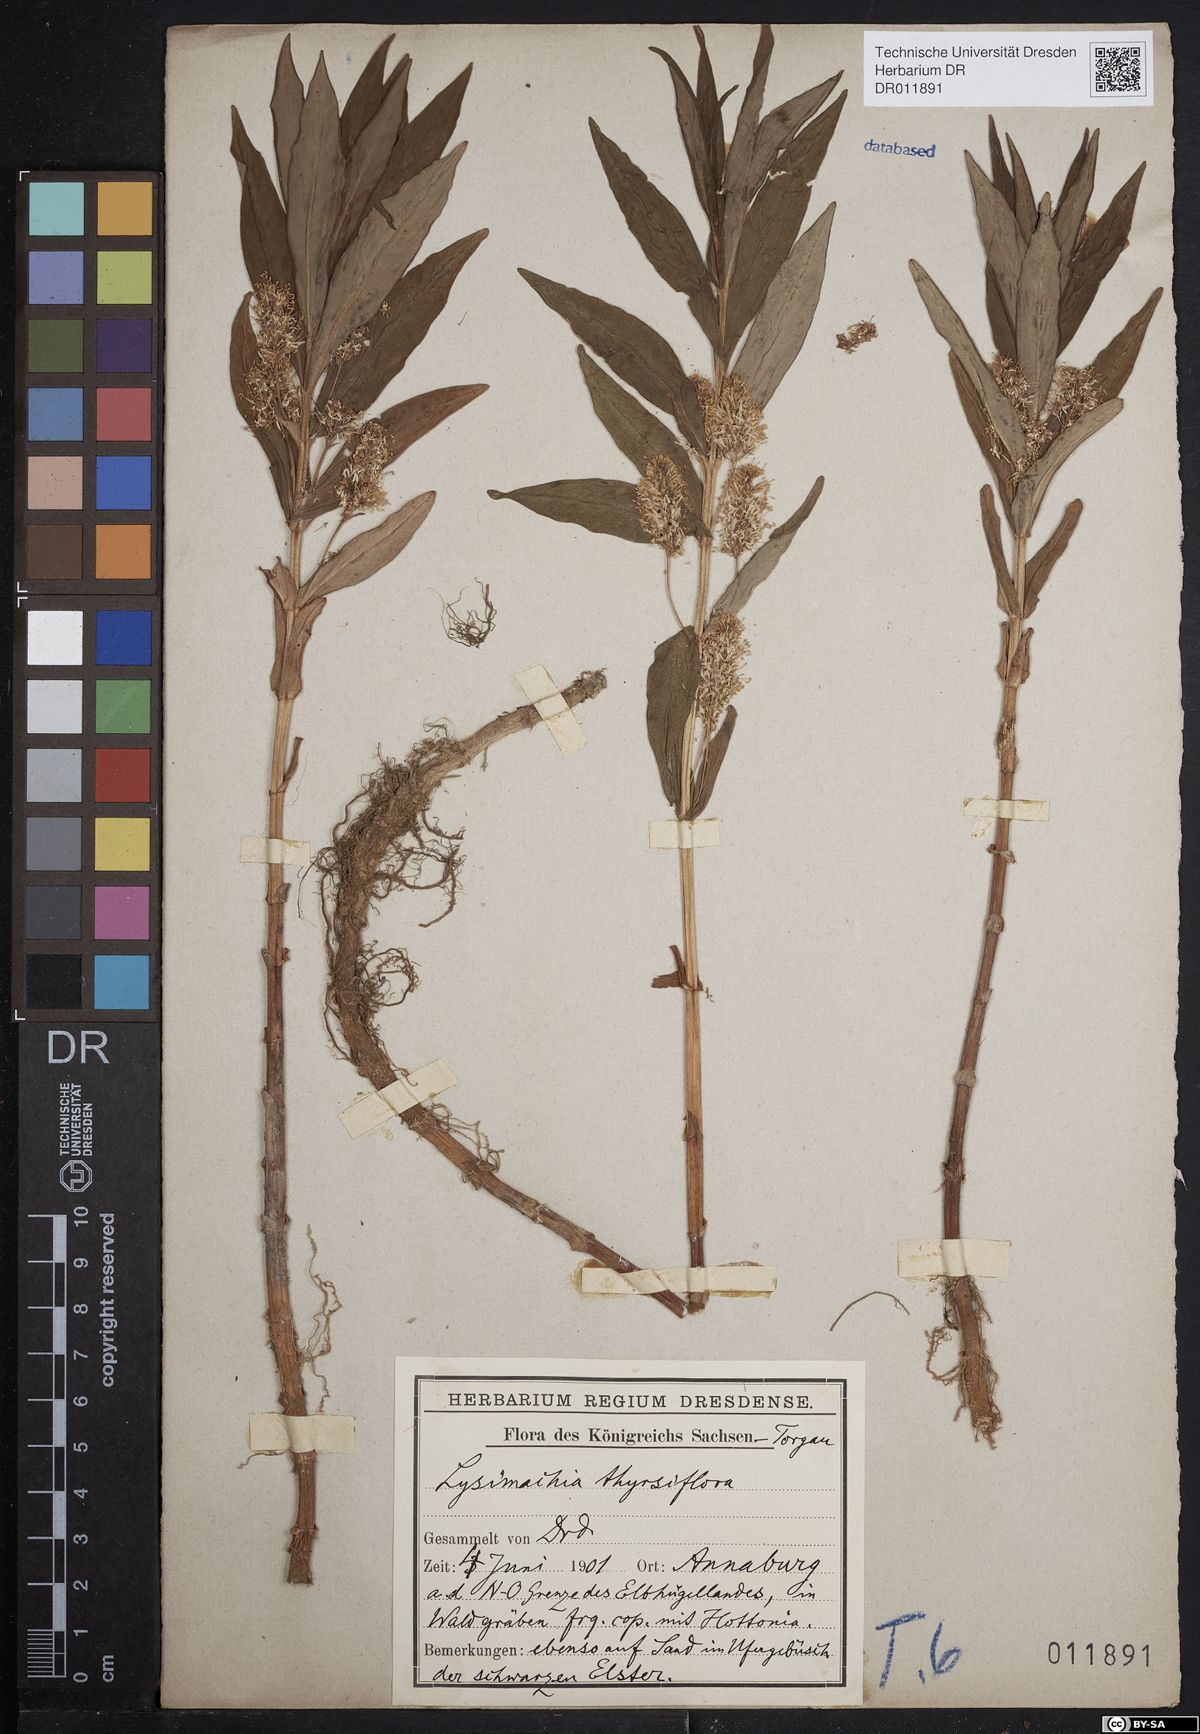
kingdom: Plantae
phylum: Tracheophyta
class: Magnoliopsida
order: Ericales
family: Primulaceae
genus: Lysimachia
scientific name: Lysimachia thyrsiflora
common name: Tufted loosestrife
